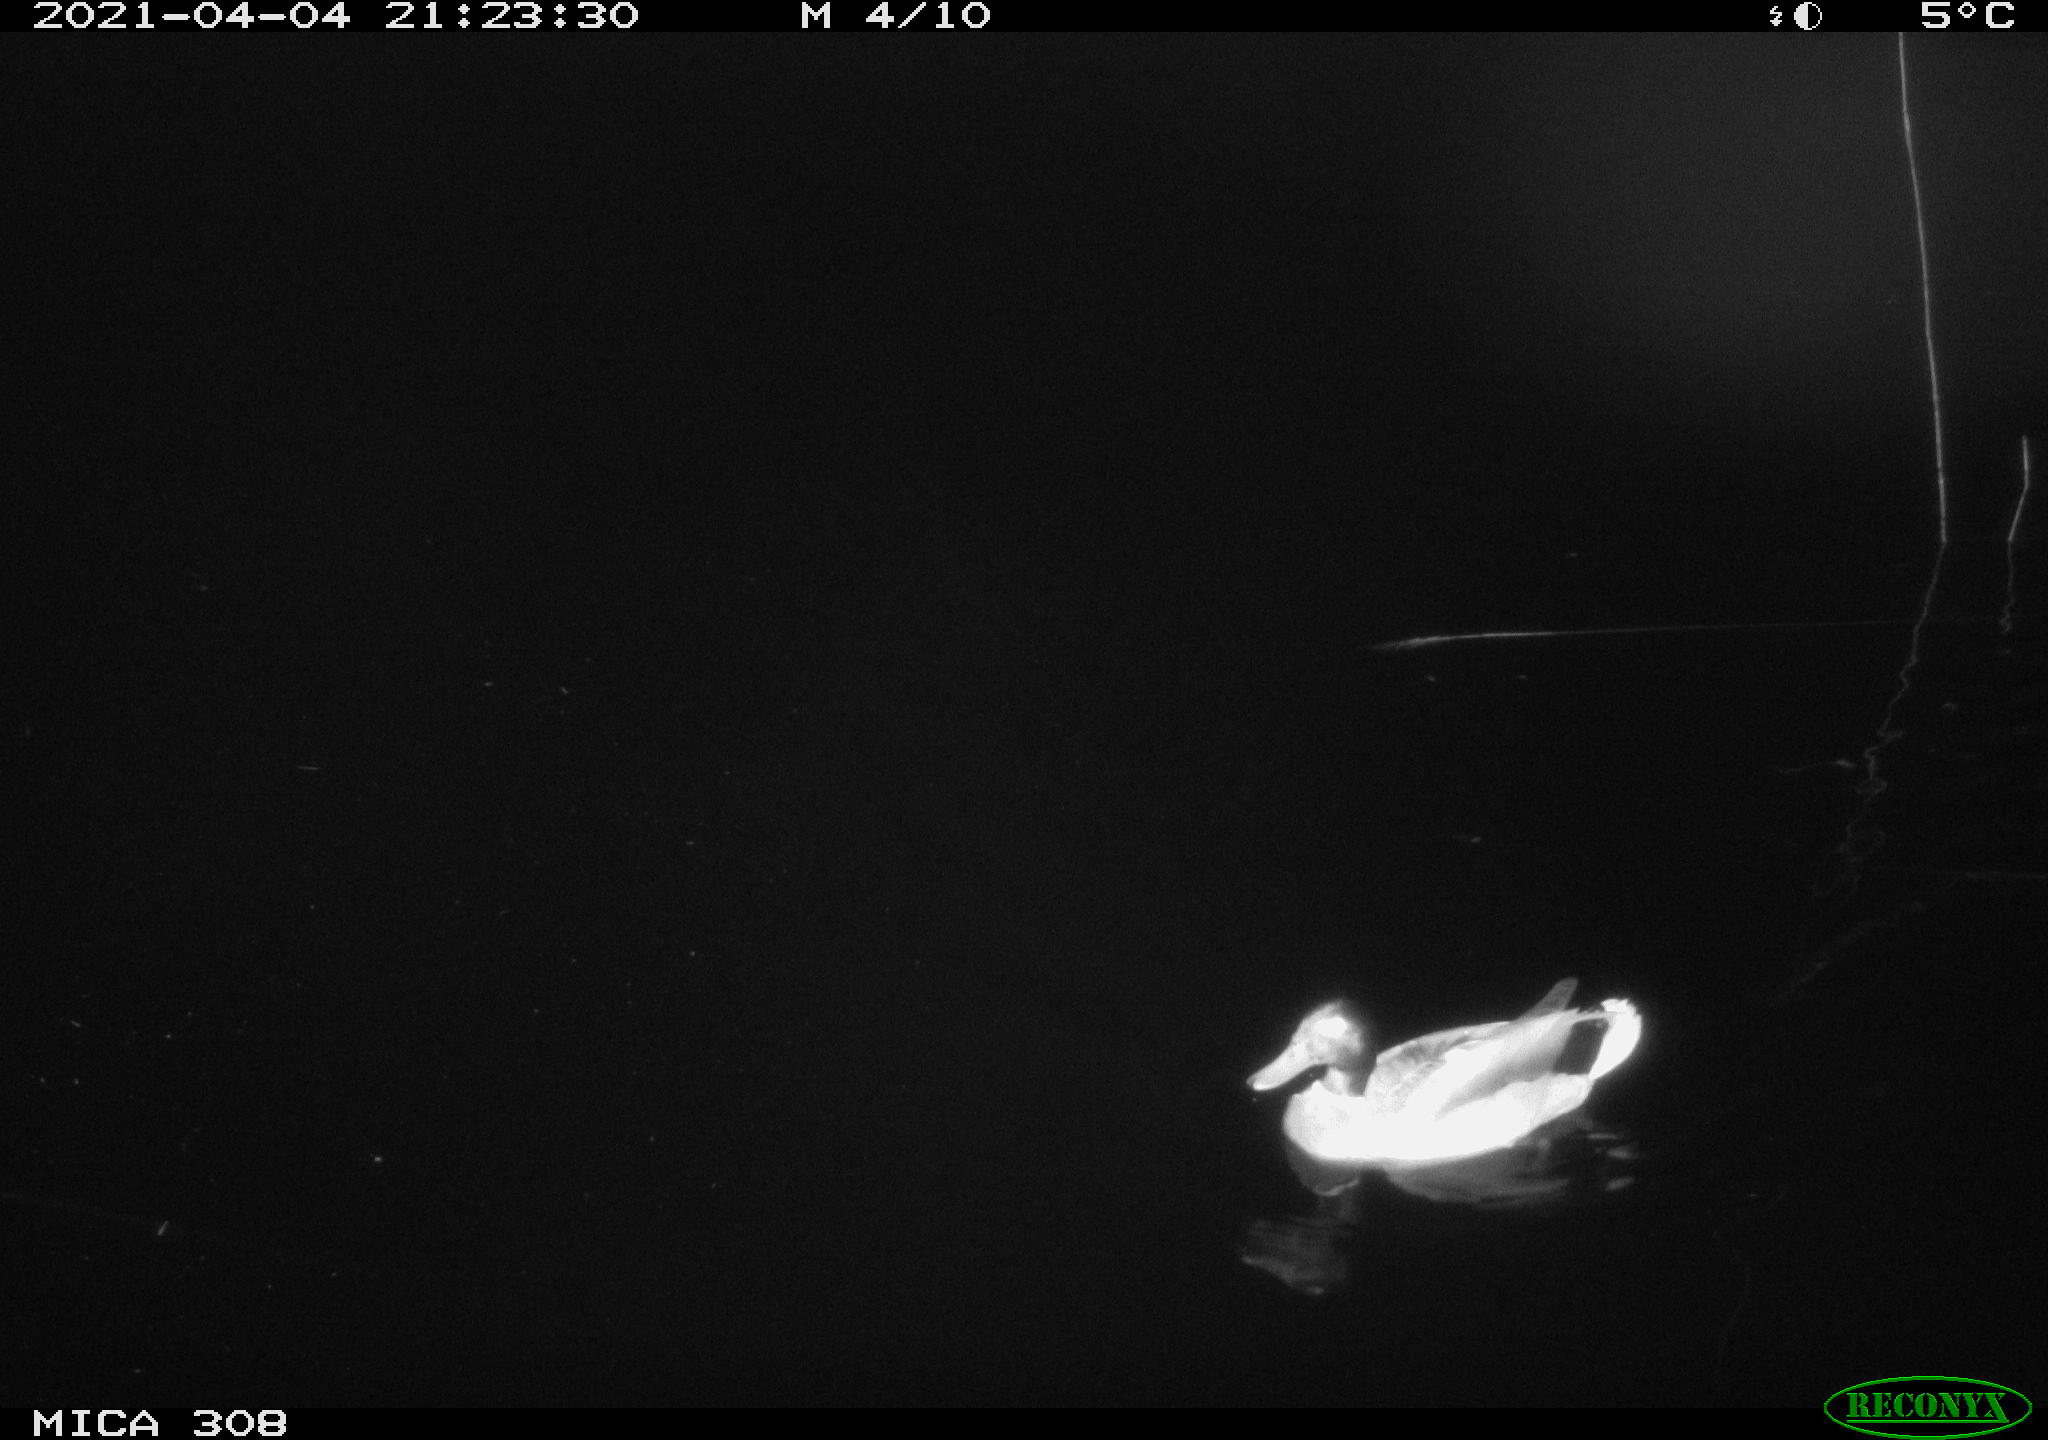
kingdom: Animalia
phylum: Chordata
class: Aves
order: Anseriformes
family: Anatidae
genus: Anas
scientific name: Anas platyrhynchos
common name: Mallard
